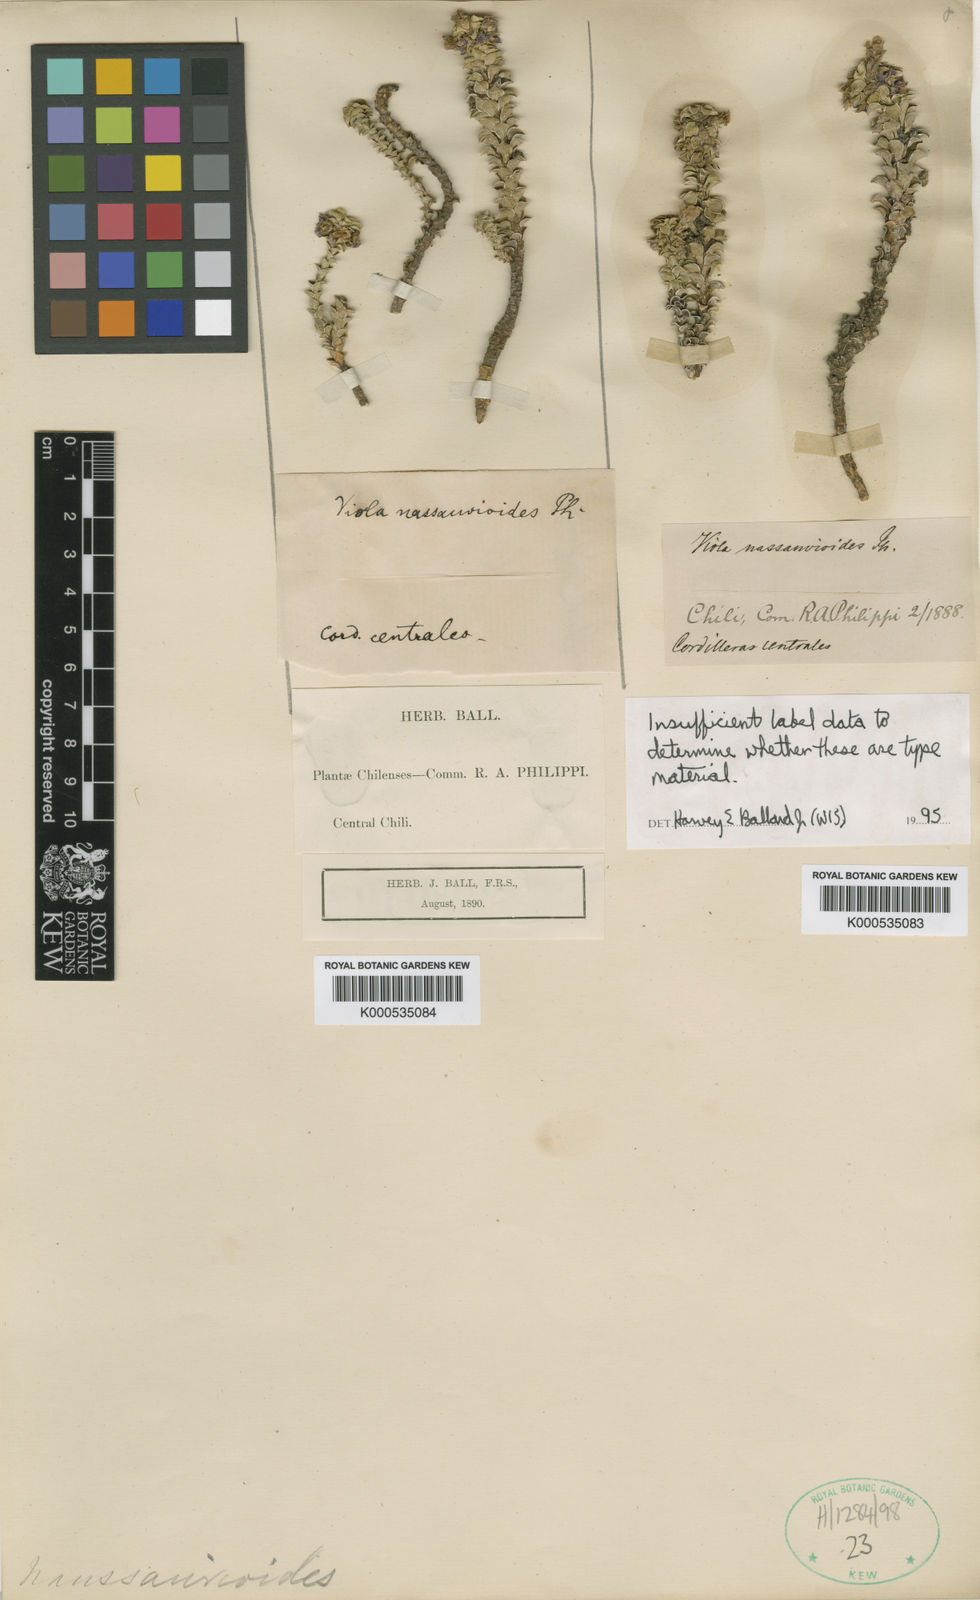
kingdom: Plantae
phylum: Tracheophyta
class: Magnoliopsida
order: Malpighiales
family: Violaceae
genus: Viola
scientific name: Viola nassauvioides
